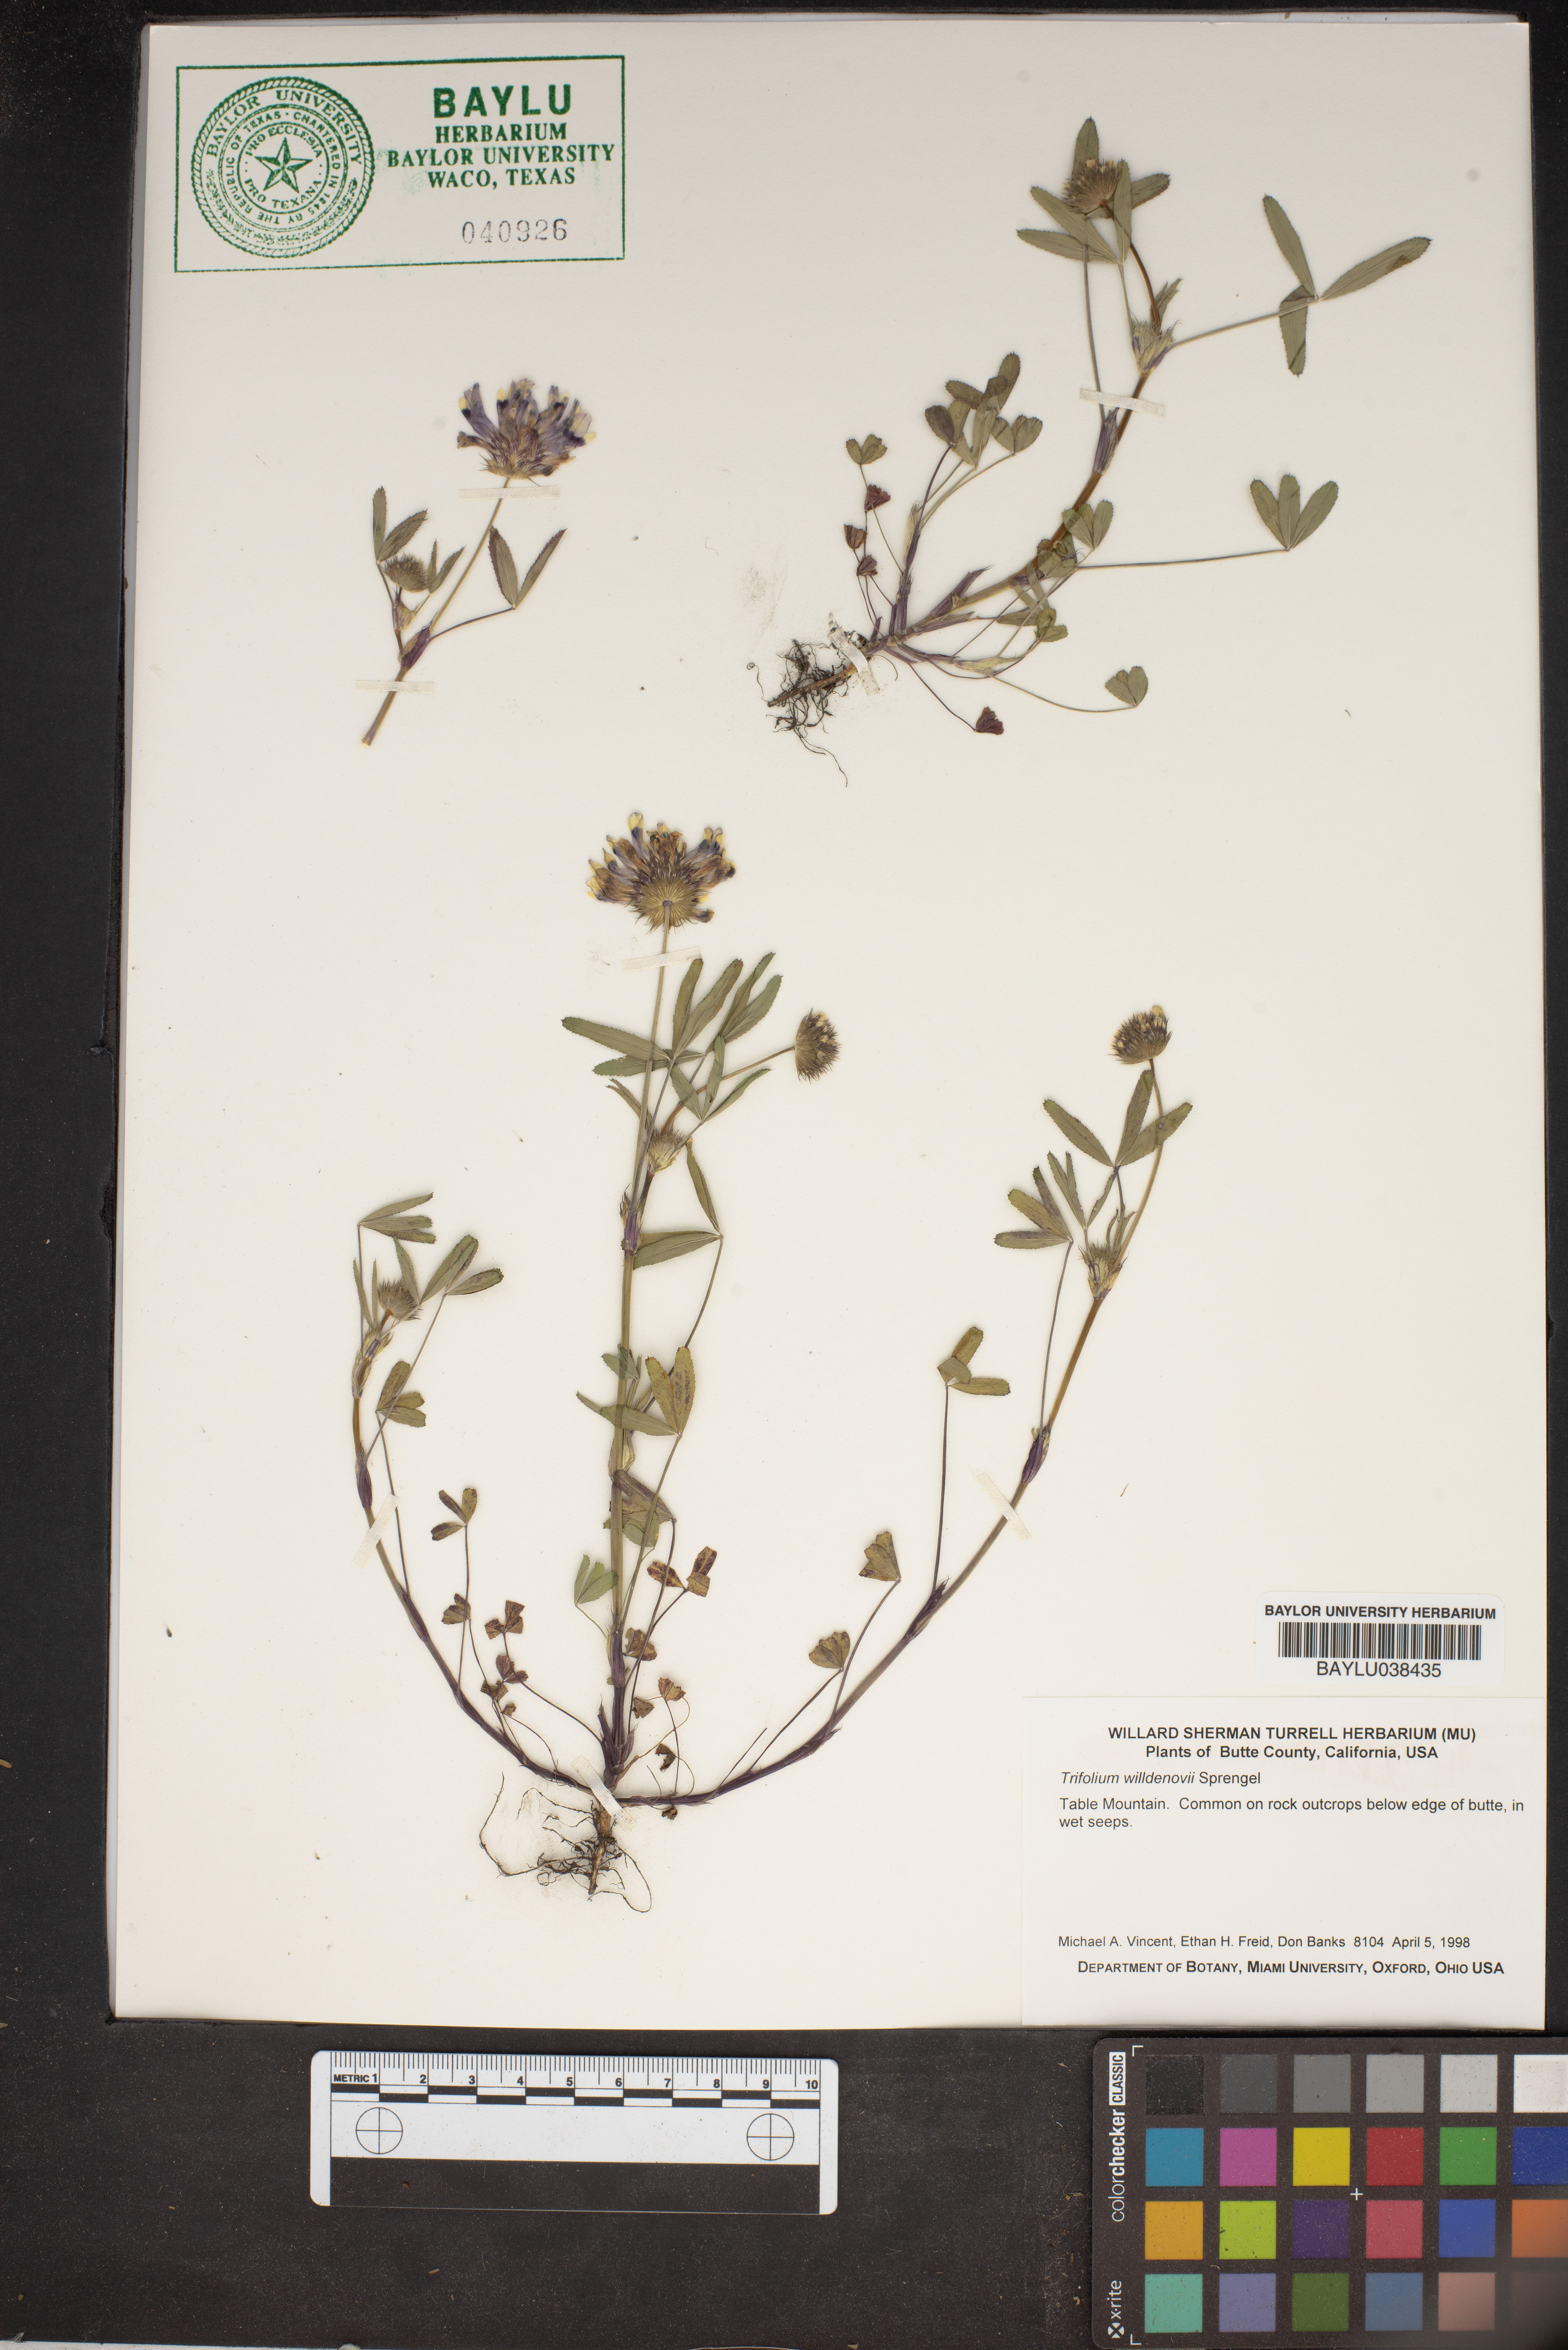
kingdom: Plantae
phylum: Tracheophyta
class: Magnoliopsida
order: Fabales
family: Fabaceae
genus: Trifolium
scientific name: Trifolium willdenovii
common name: Tomcat clover
